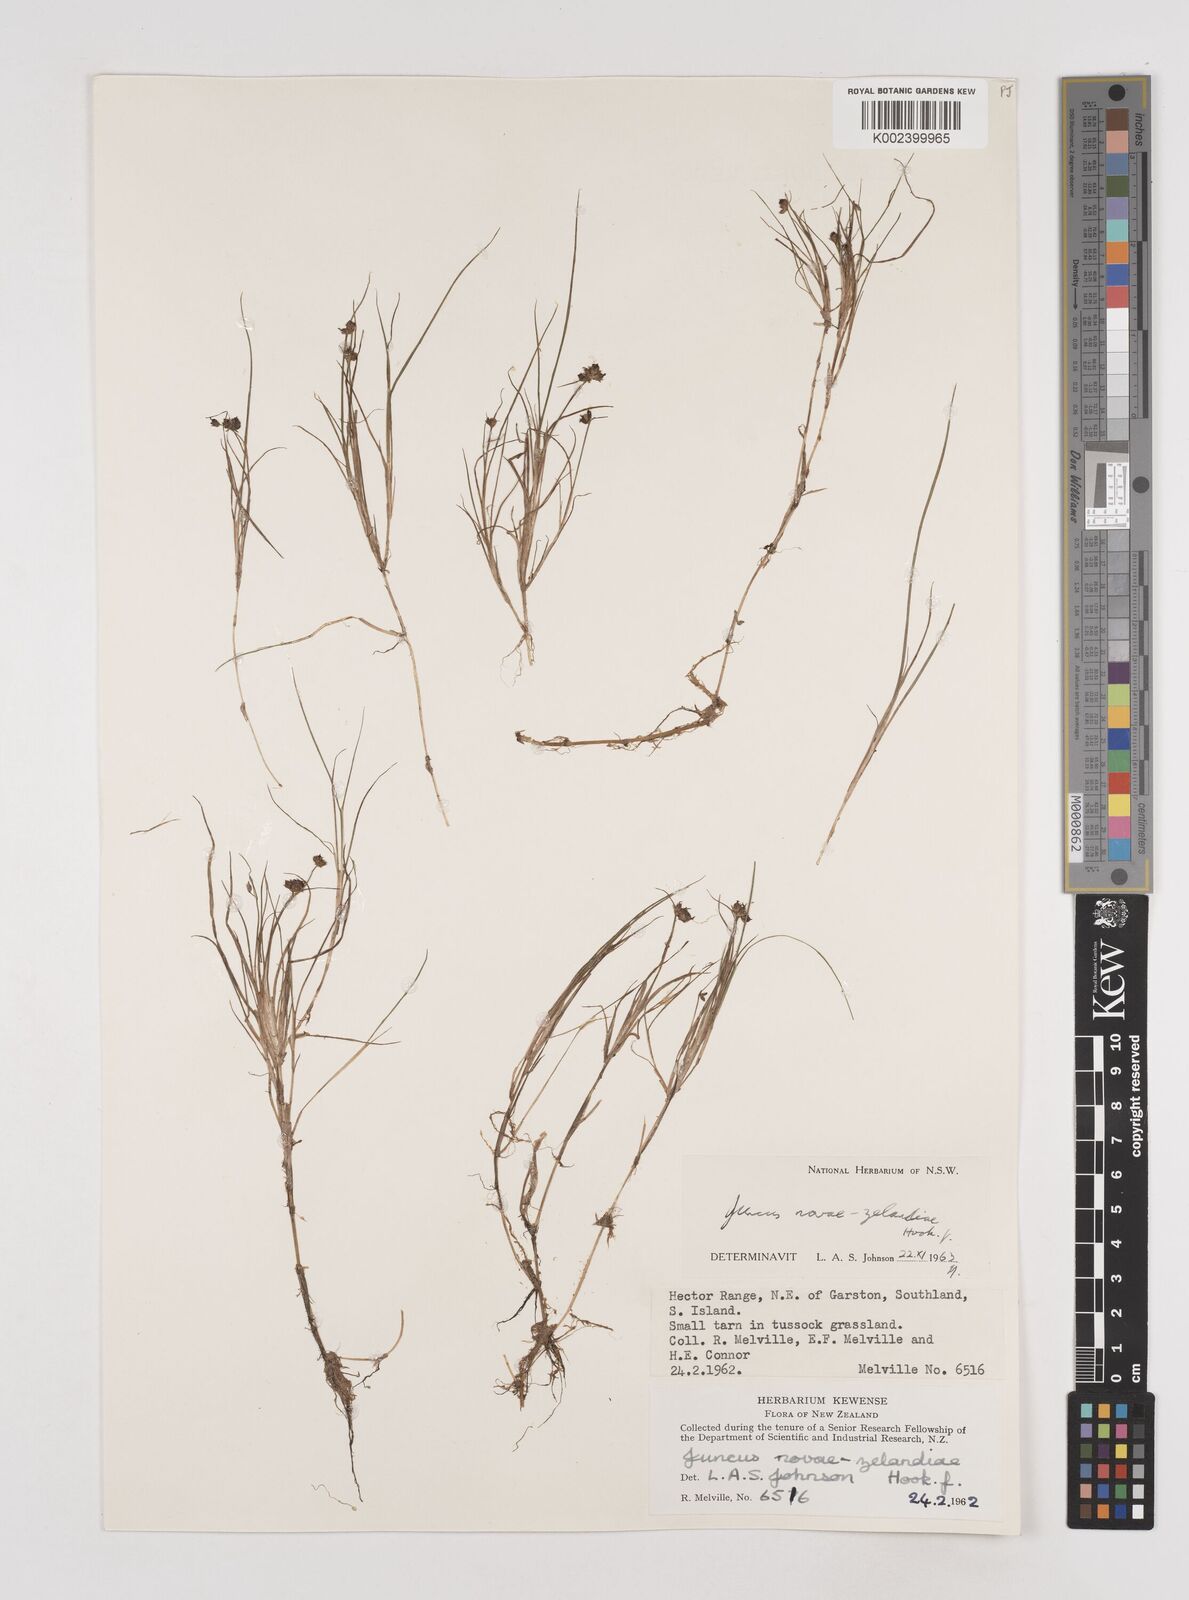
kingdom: Plantae
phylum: Tracheophyta
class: Liliopsida
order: Poales
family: Juncaceae
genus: Juncus
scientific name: Juncus novae-zelandiae
